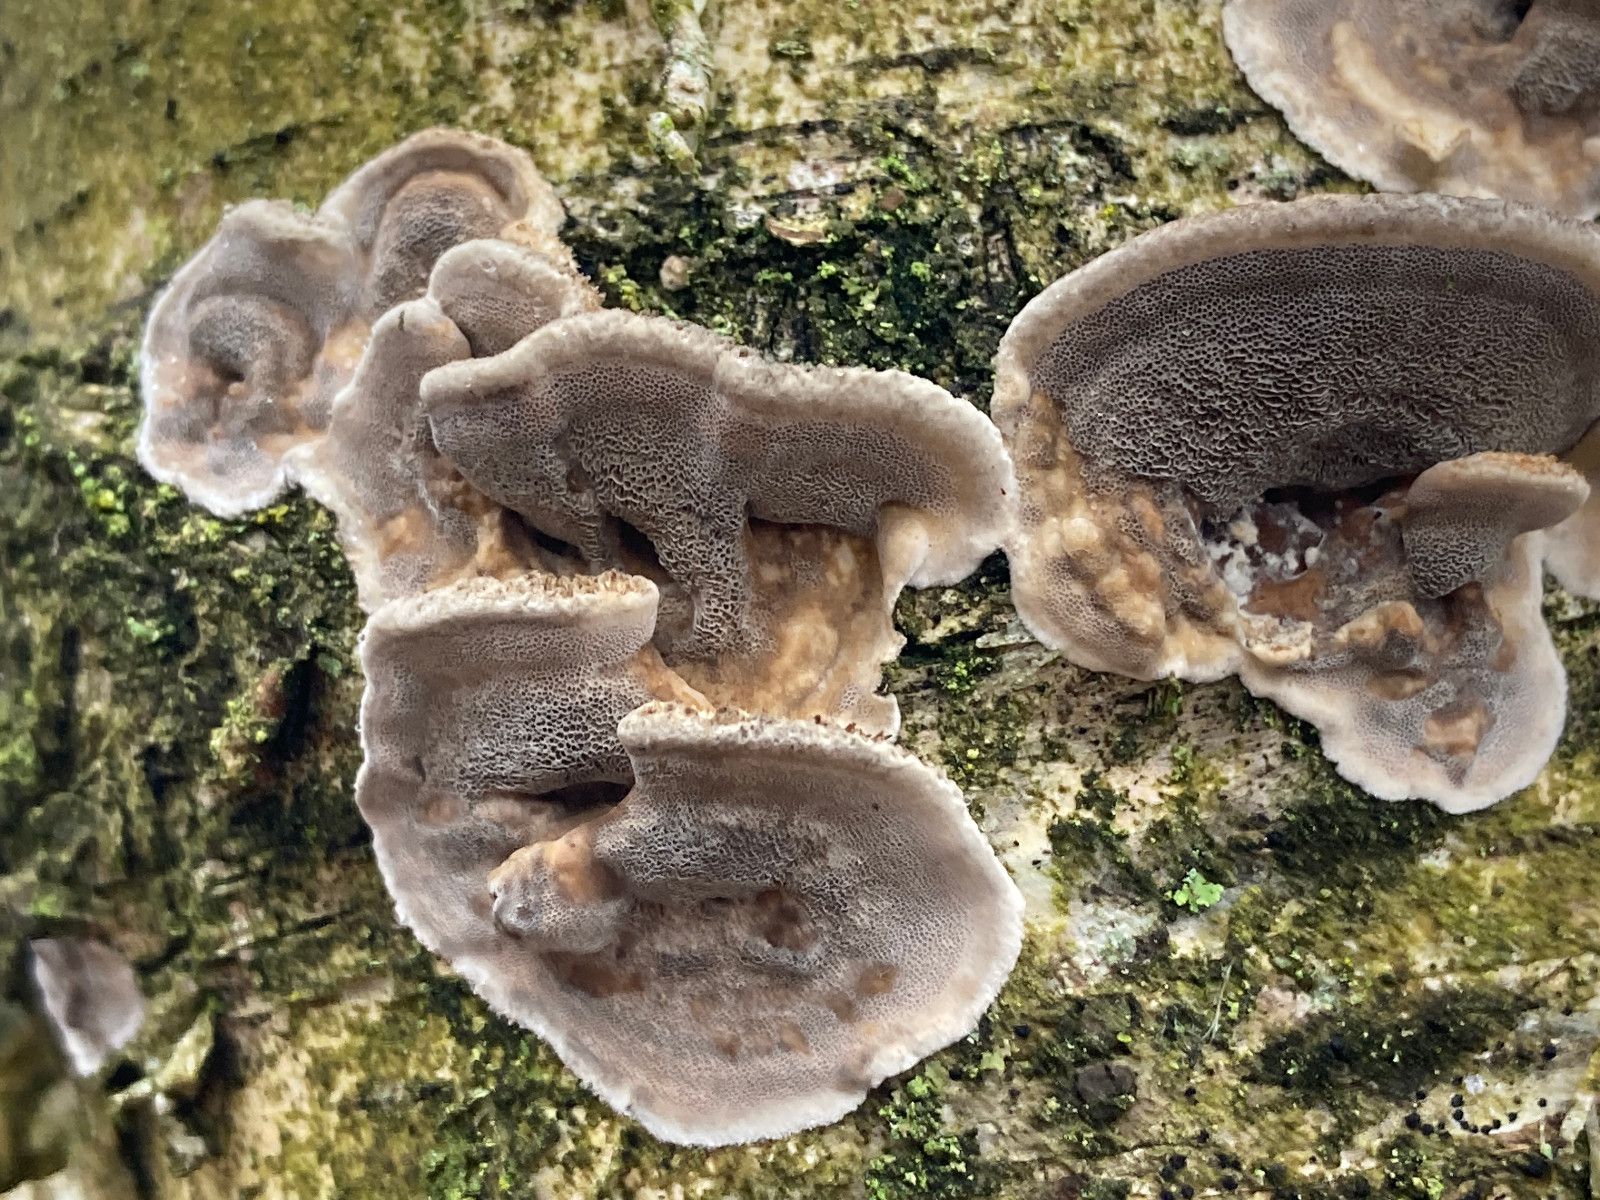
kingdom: Fungi
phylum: Basidiomycota
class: Agaricomycetes
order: Polyporales
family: Phanerochaetaceae
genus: Bjerkandera
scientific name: Bjerkandera adusta
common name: sveden sodporesvamp
